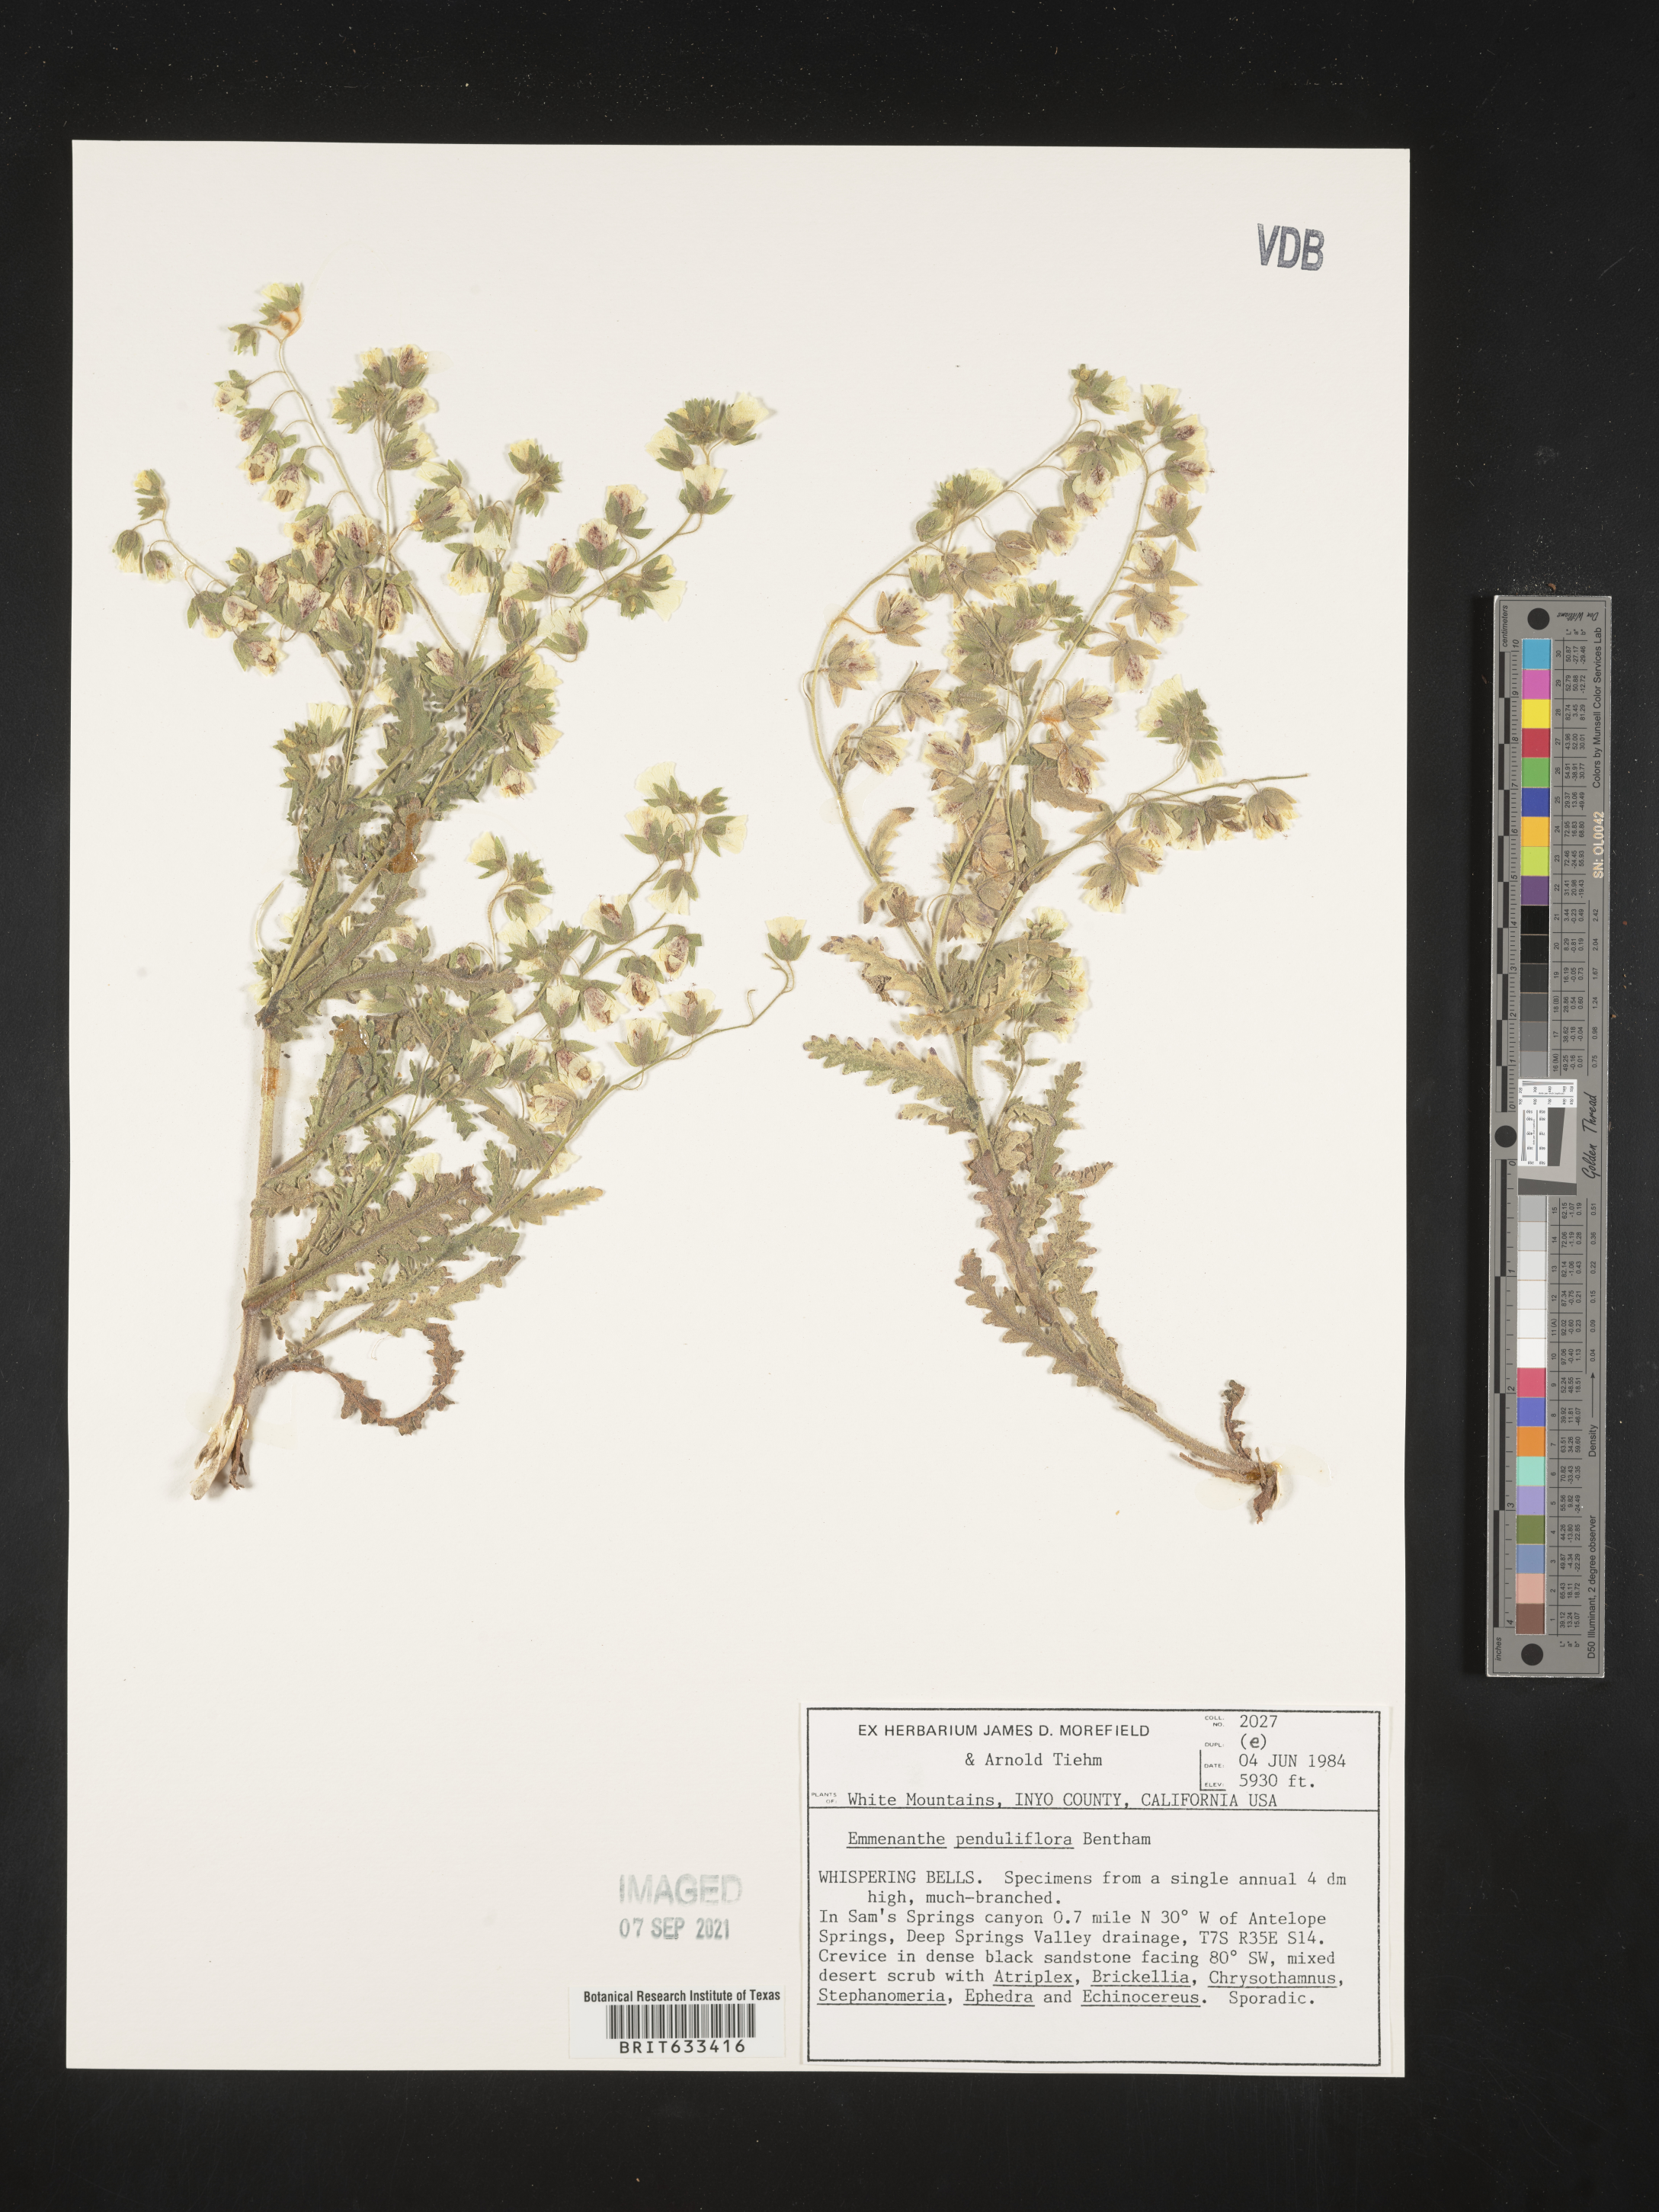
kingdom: Plantae
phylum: Tracheophyta
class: Magnoliopsida
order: Boraginales
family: Hydrophyllaceae
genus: Emmenanthe
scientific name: Emmenanthe penduliflora
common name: Whispering-bells
